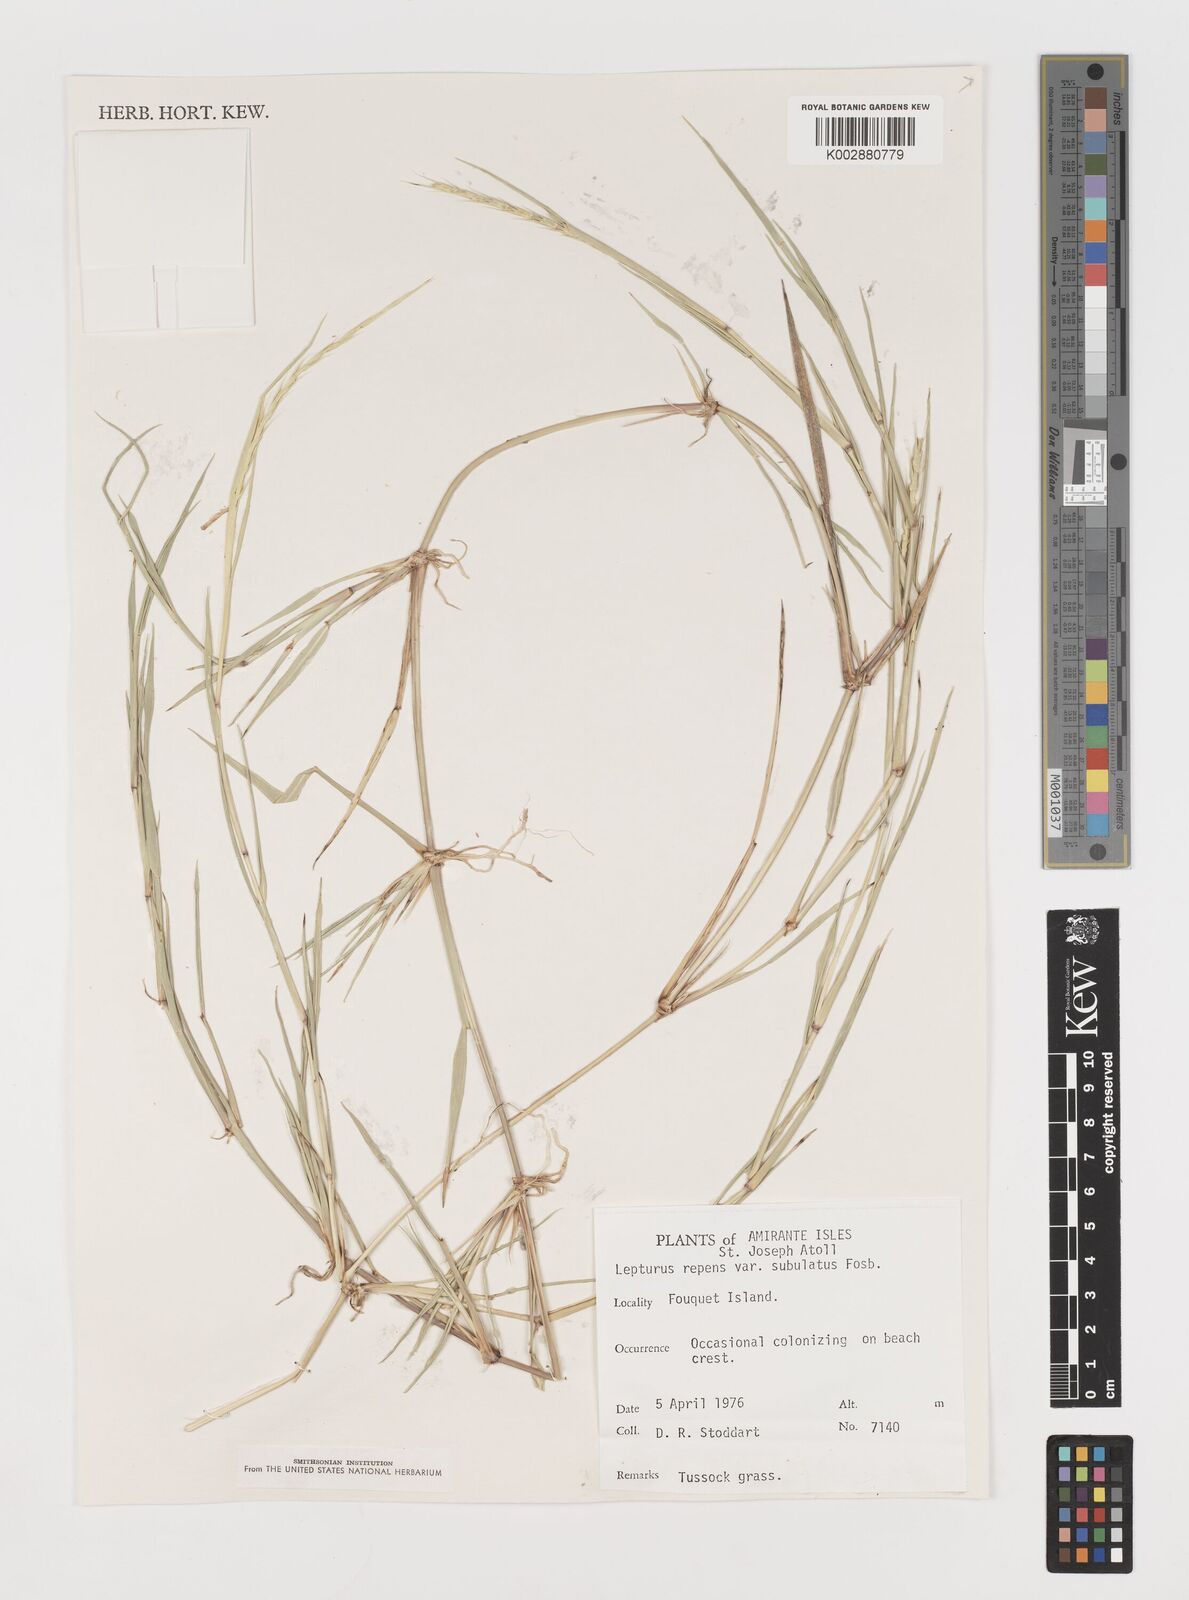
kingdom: Plantae
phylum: Tracheophyta
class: Liliopsida
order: Poales
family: Poaceae
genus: Lepturus
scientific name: Lepturus repens
